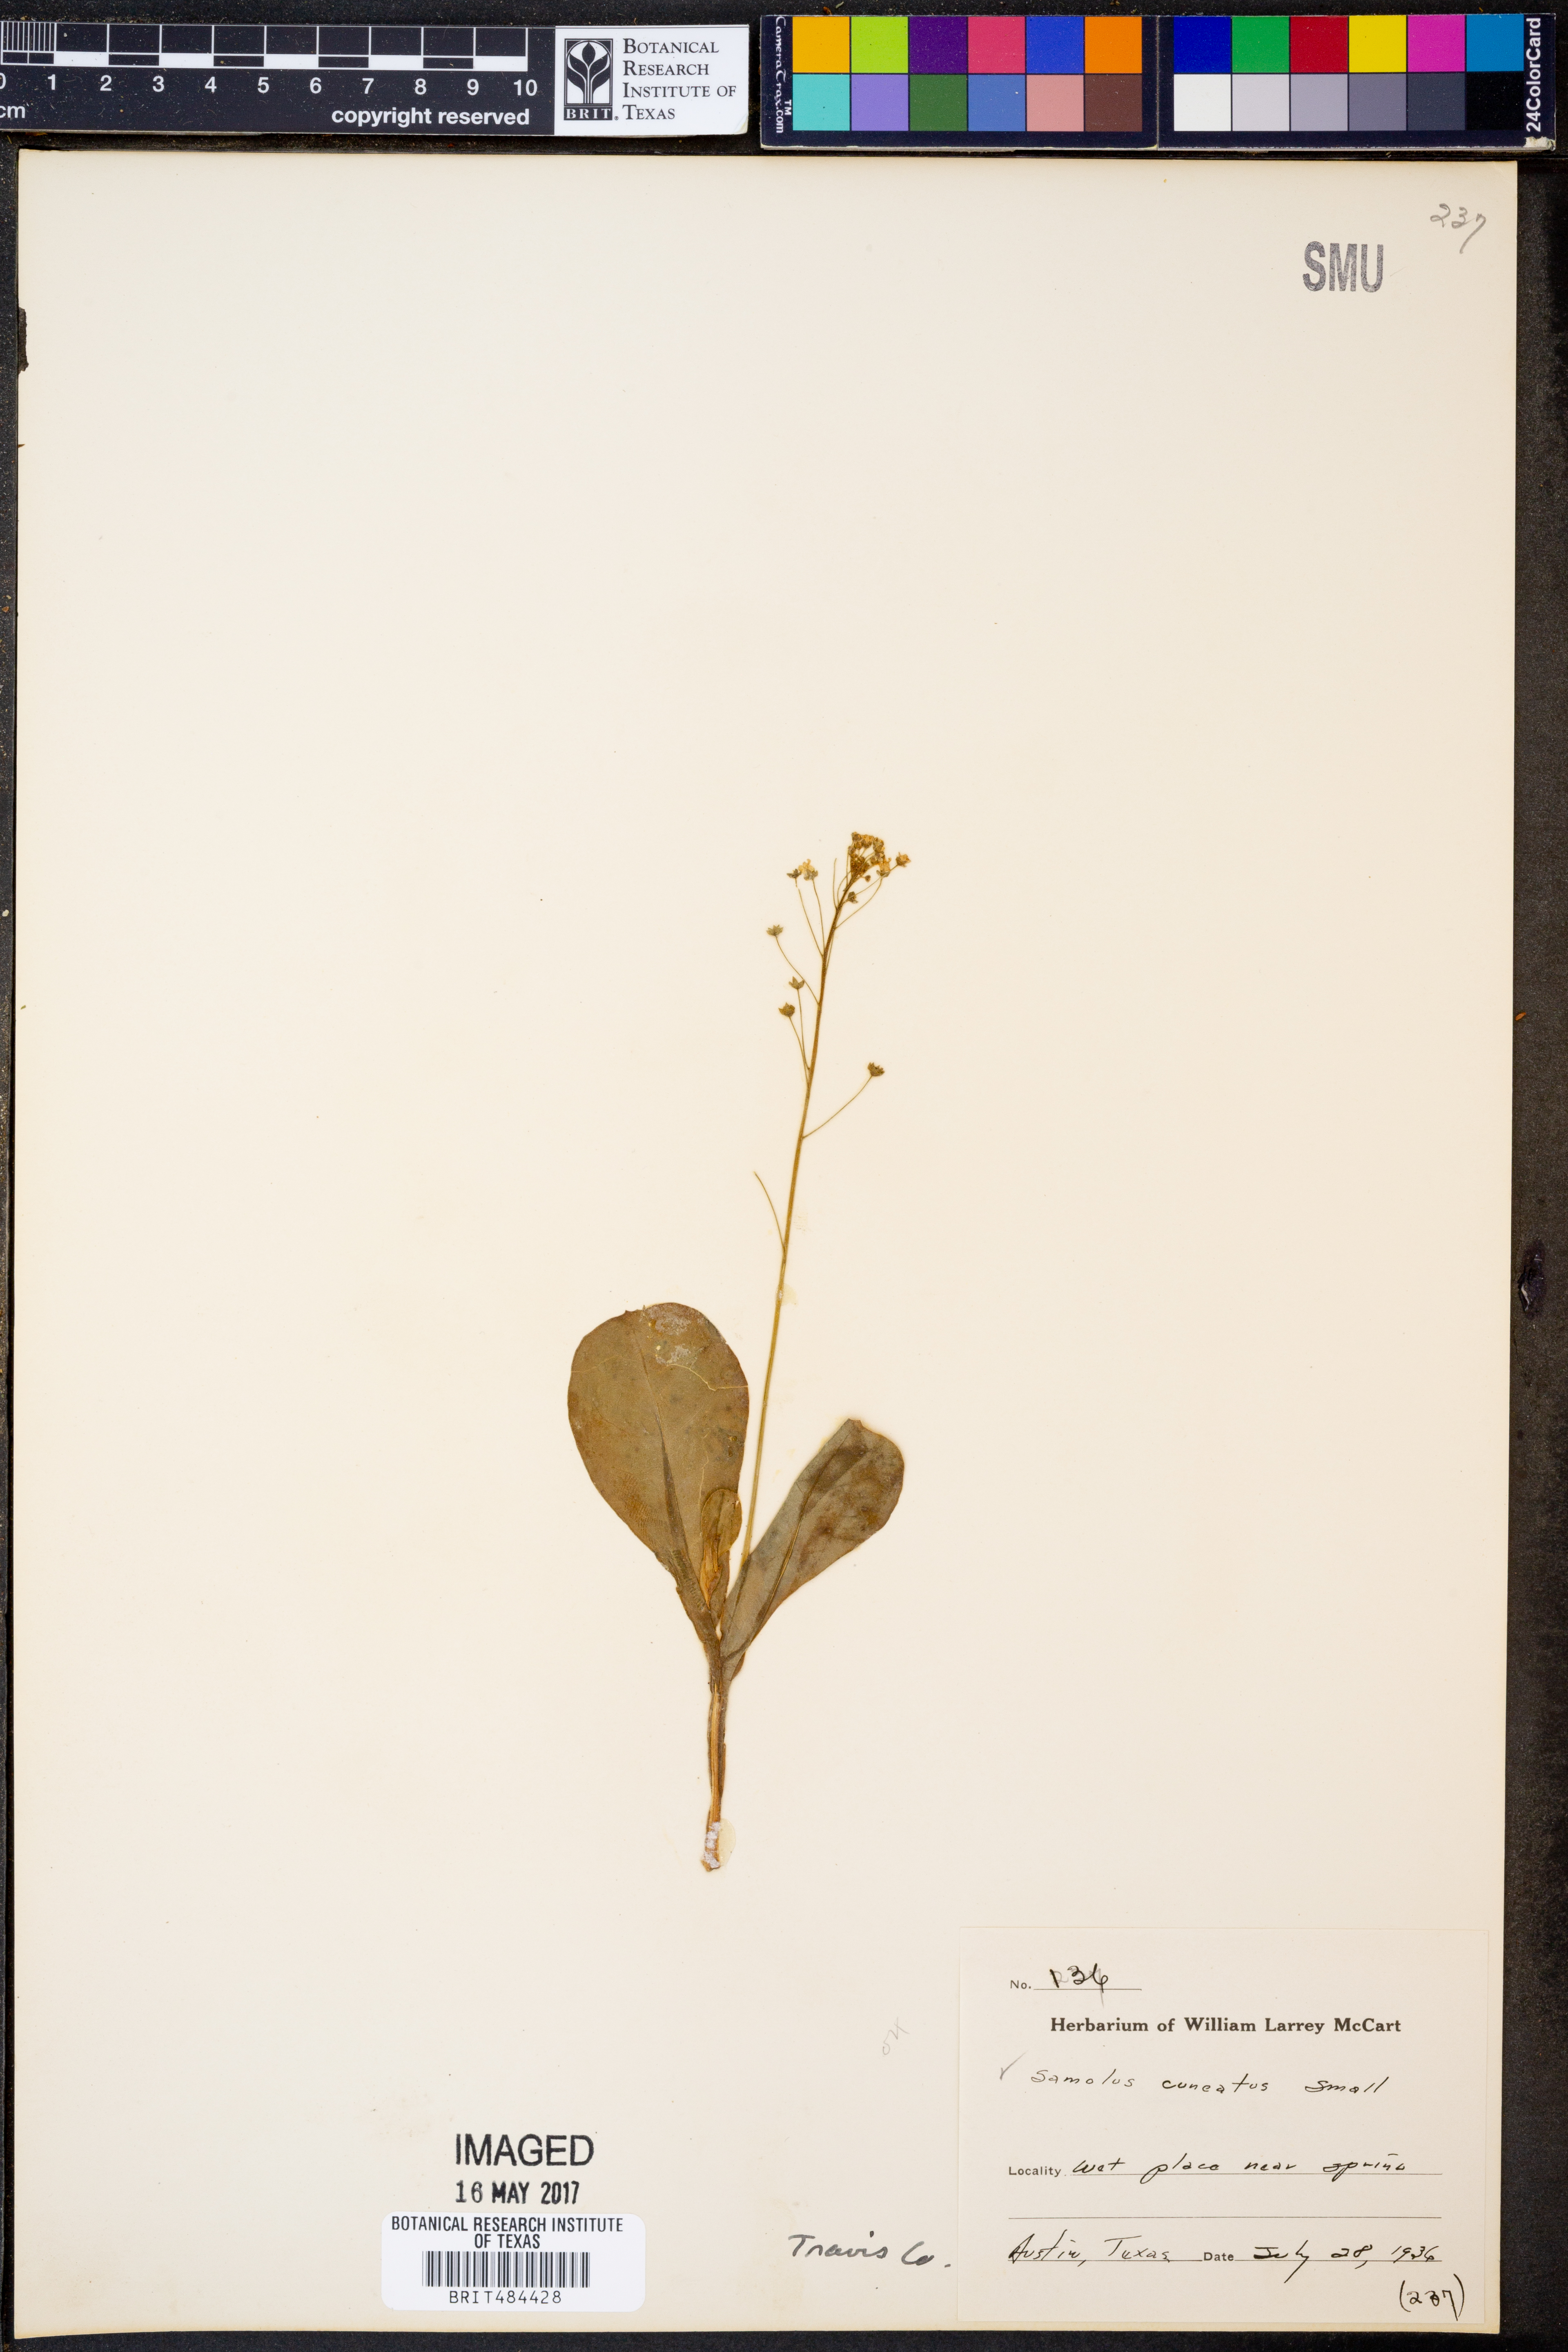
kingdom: Plantae
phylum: Tracheophyta
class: Magnoliopsida
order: Ericales
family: Primulaceae
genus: Samolus
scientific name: Samolus ebracteatus
